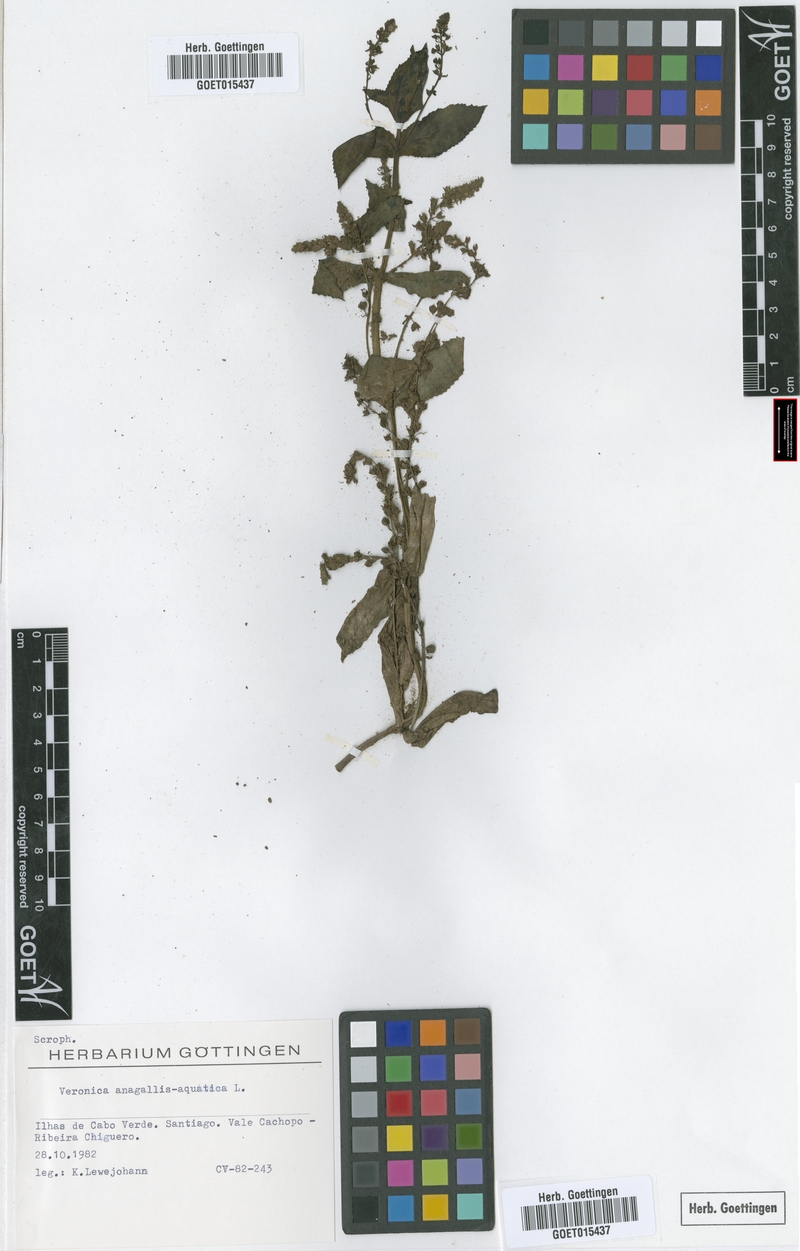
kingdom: Plantae
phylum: Tracheophyta
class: Magnoliopsida
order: Lamiales
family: Plantaginaceae
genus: Veronica
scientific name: Veronica anagallis-aquatica
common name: Water speedwell
